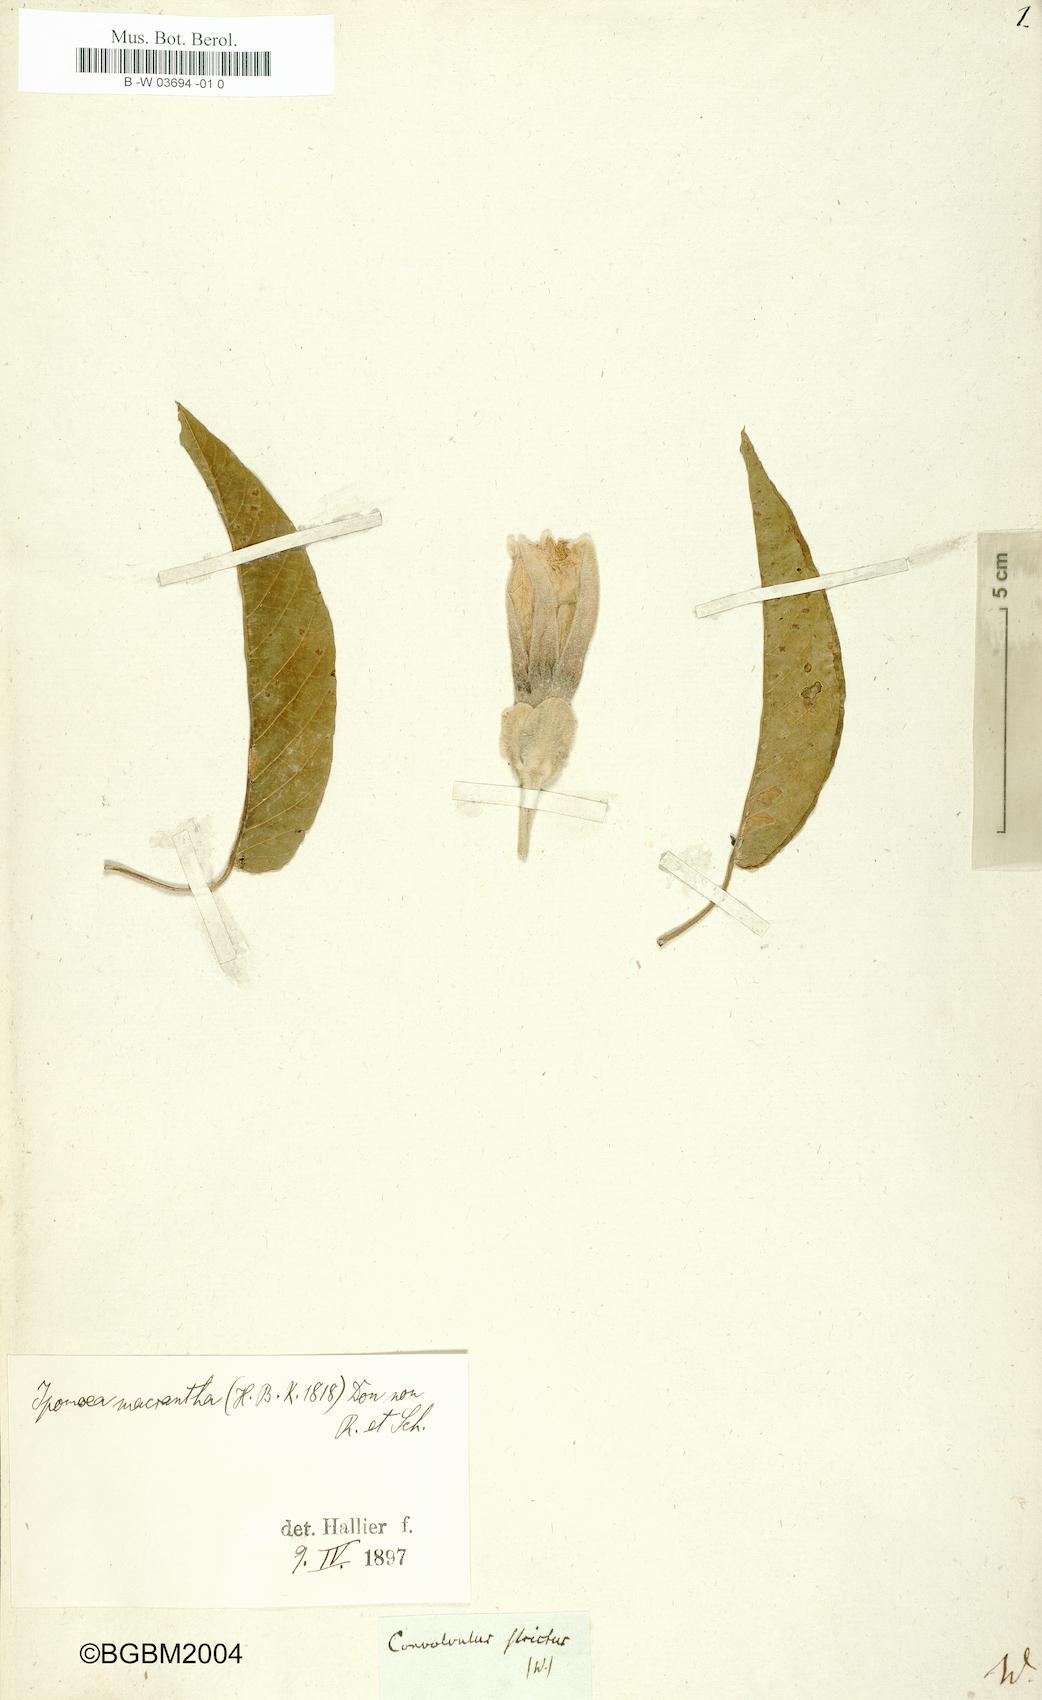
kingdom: Plantae
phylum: Tracheophyta
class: Magnoliopsida
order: Solanales
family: Convolvulaceae
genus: Convolvulus
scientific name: Convolvulus
